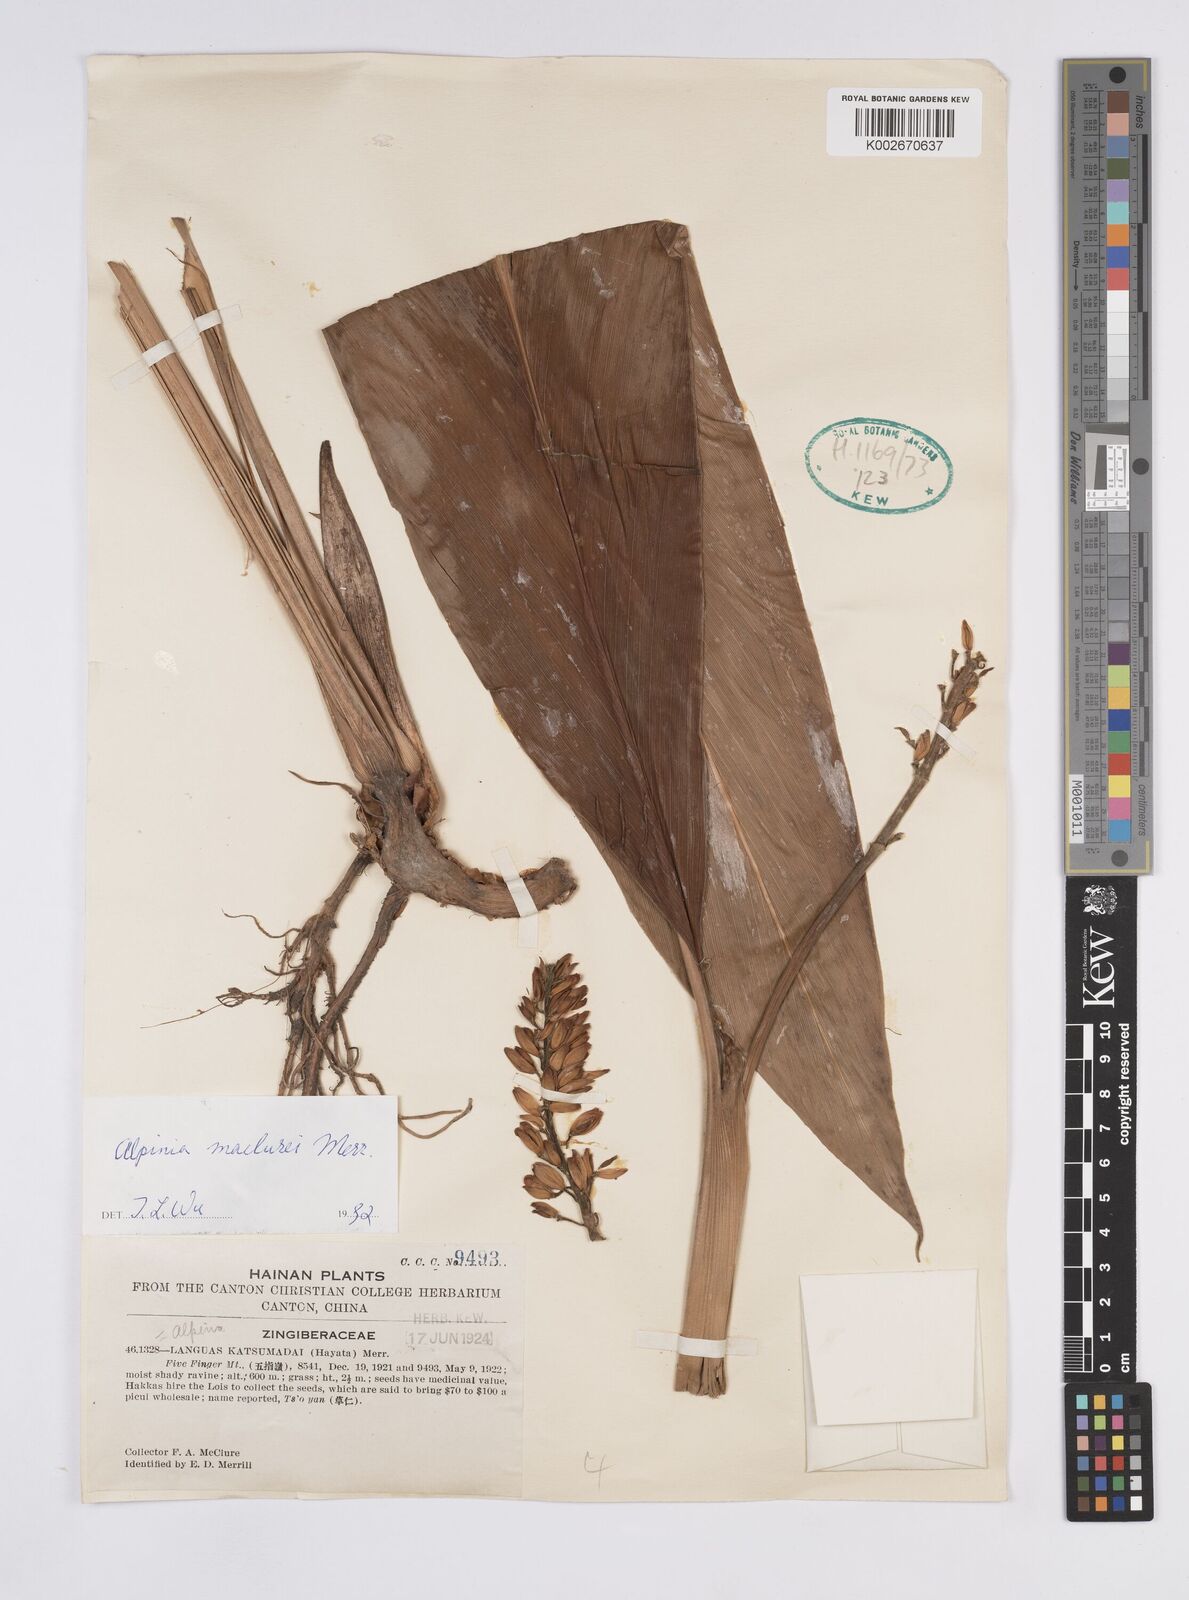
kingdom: Plantae
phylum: Tracheophyta
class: Liliopsida
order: Zingiberales
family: Zingiberaceae
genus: Alpinia
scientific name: Alpinia maclurei
